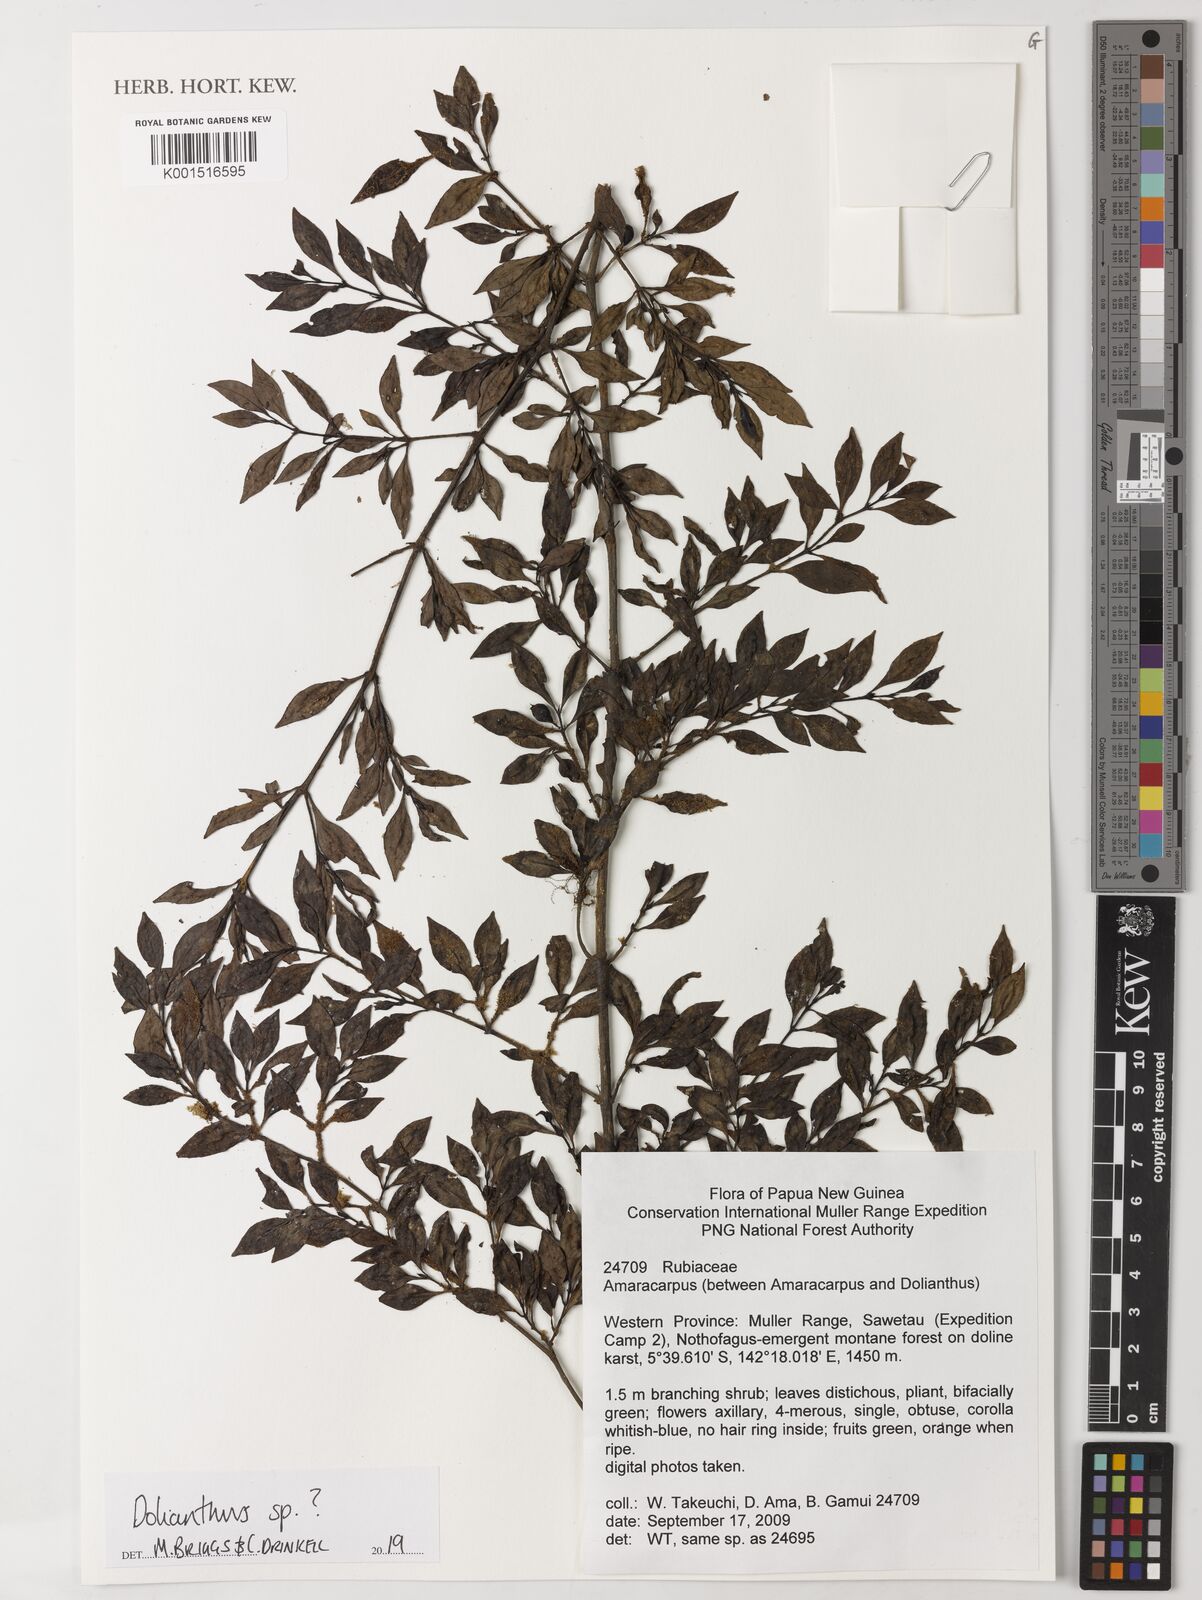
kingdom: Plantae
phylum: Tracheophyta
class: Magnoliopsida
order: Gentianales
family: Rubiaceae
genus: Dolianthus
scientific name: Dolianthus
